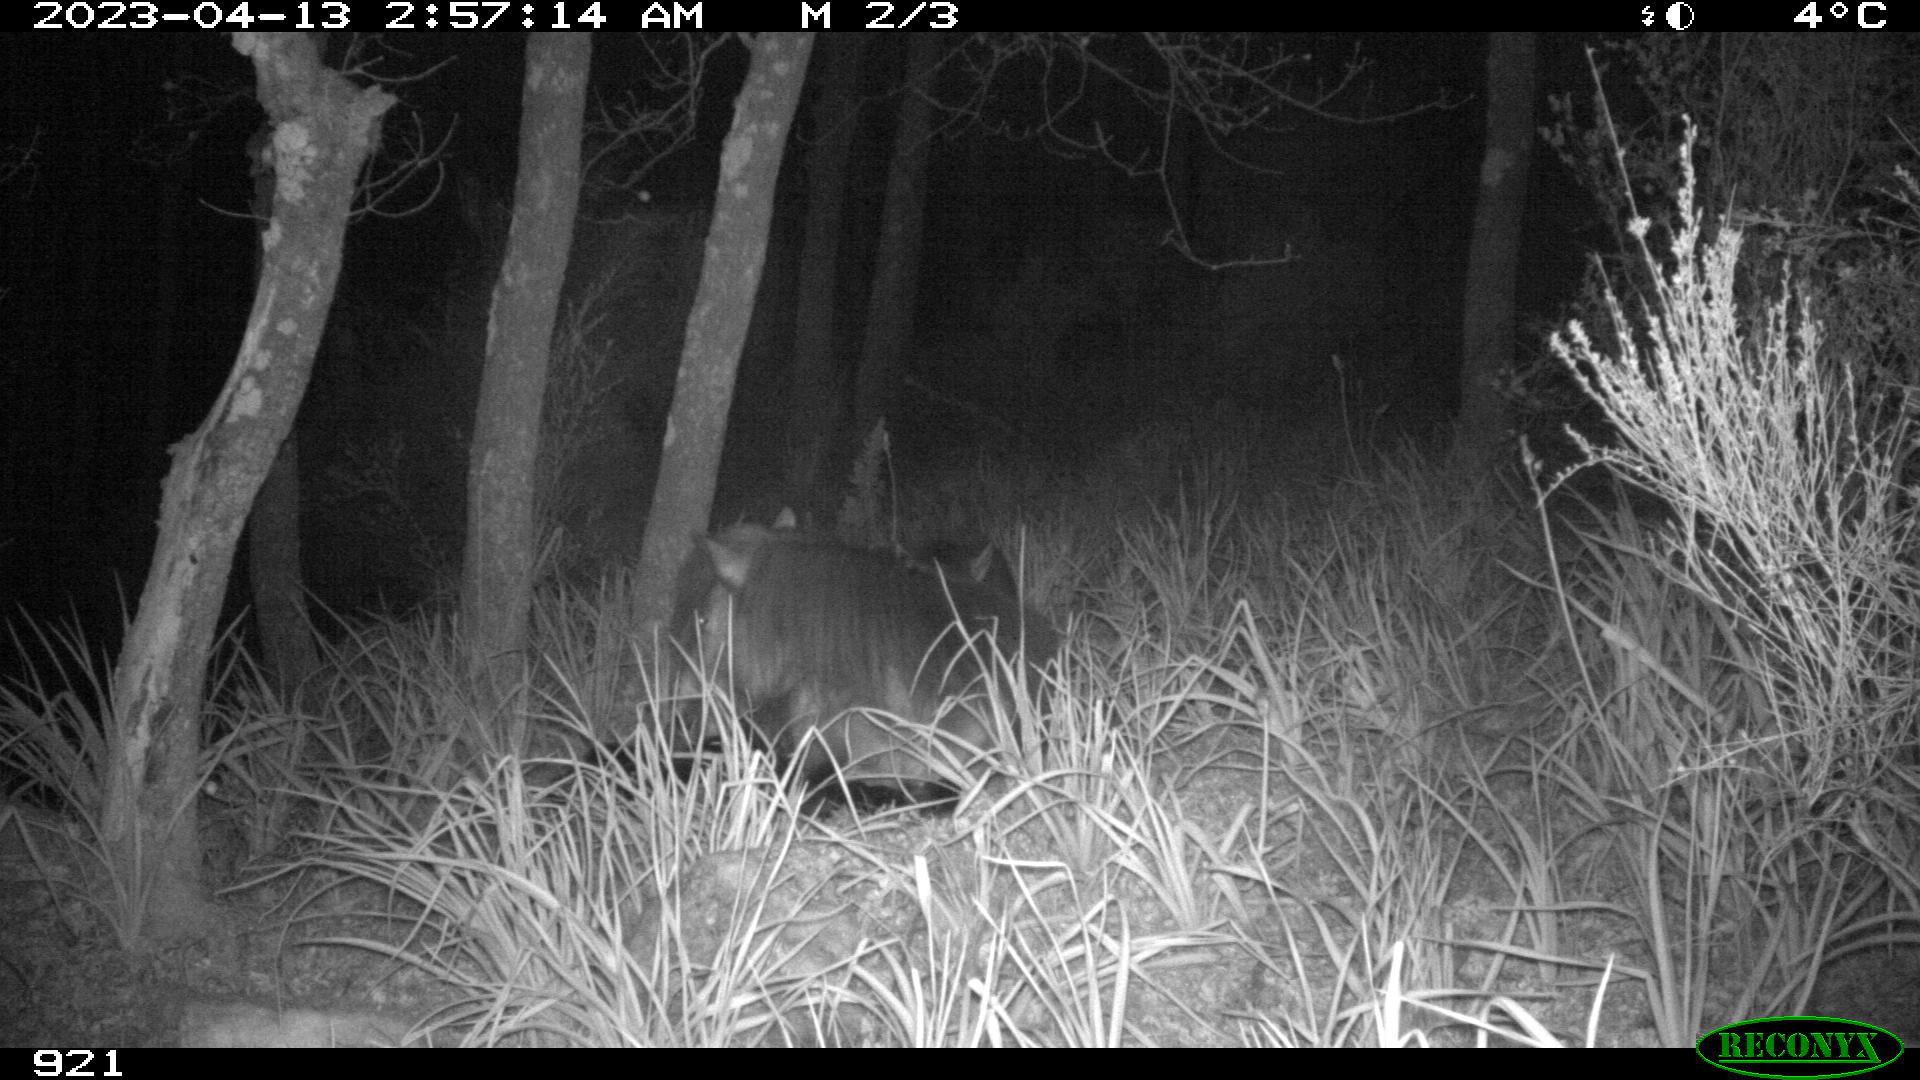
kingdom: Animalia
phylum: Chordata
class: Mammalia
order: Perissodactyla
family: Equidae
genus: Equus
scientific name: Equus caballus
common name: Horse
